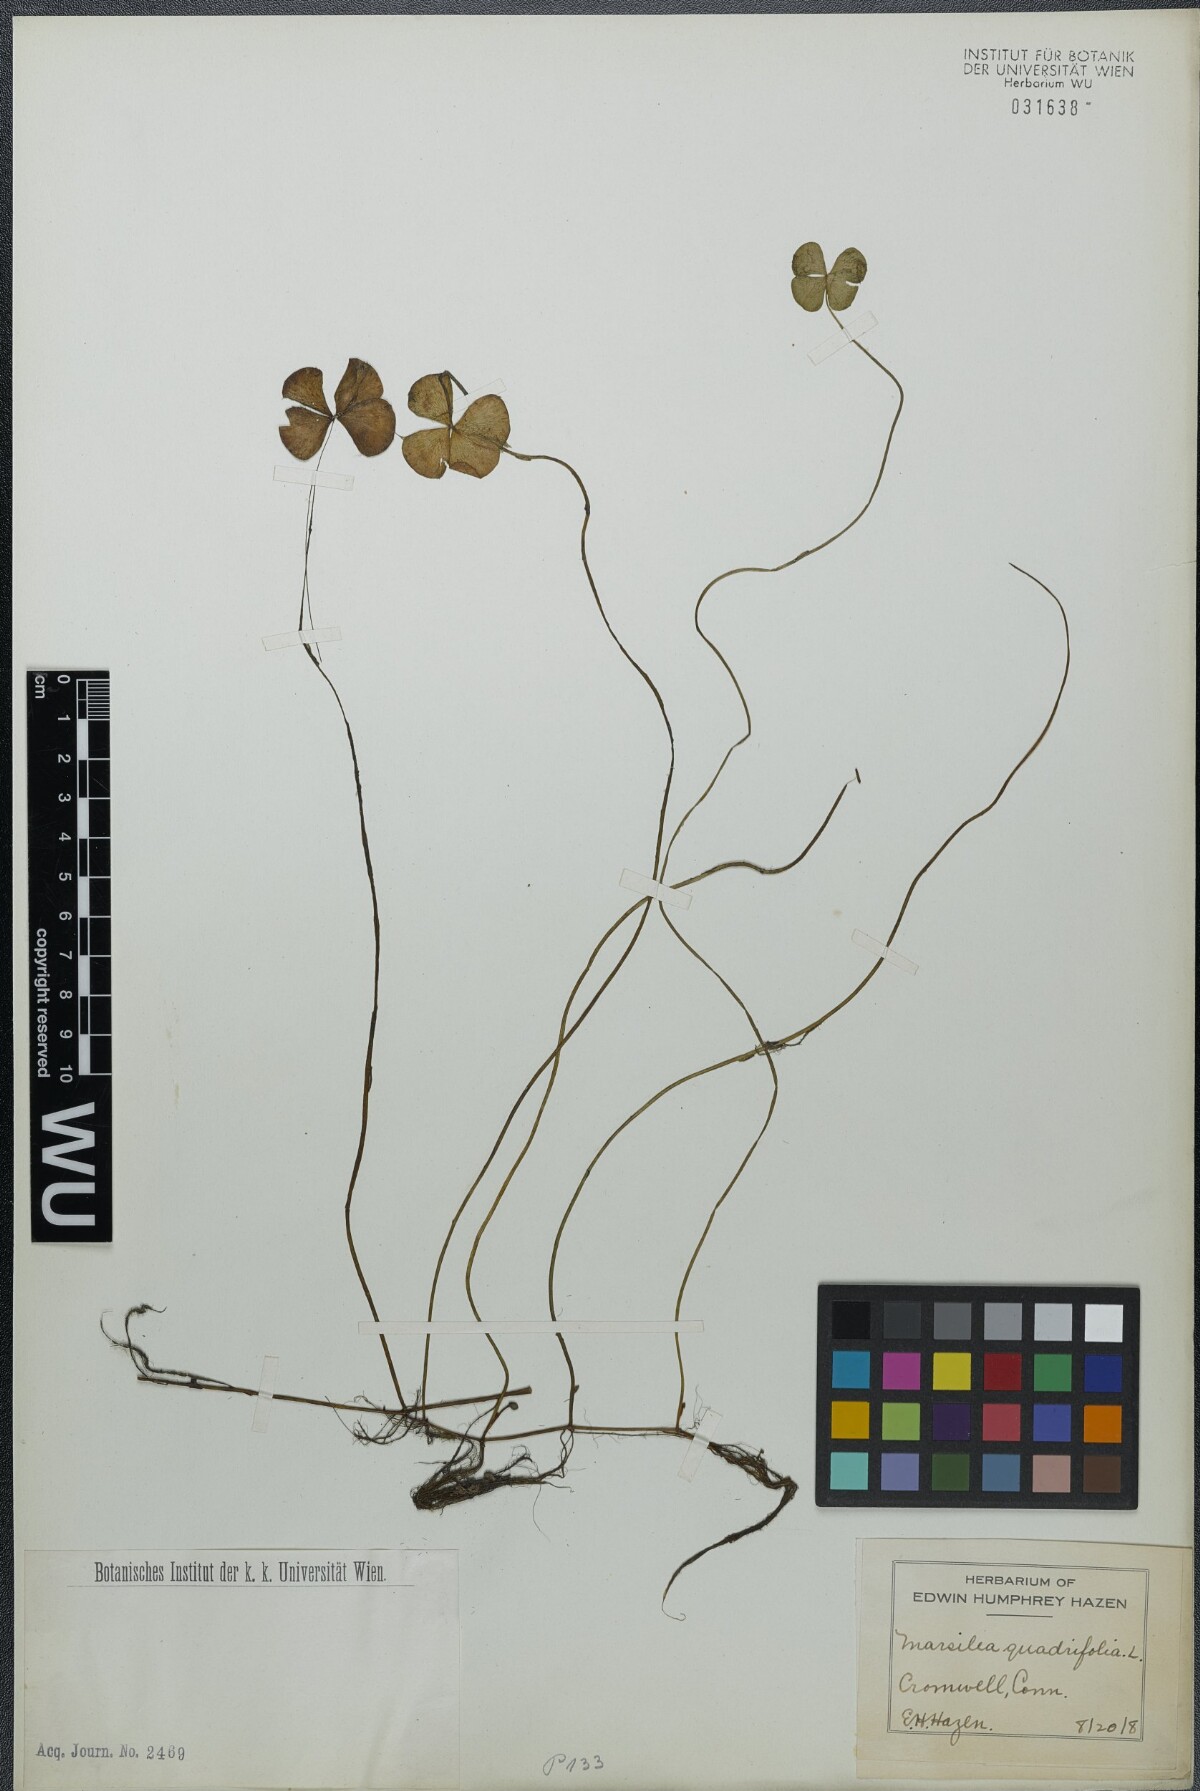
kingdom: Plantae
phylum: Tracheophyta
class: Polypodiopsida
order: Salviniales
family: Marsileaceae
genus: Marsilea
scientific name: Marsilea quadrifolia
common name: Water shamrock
